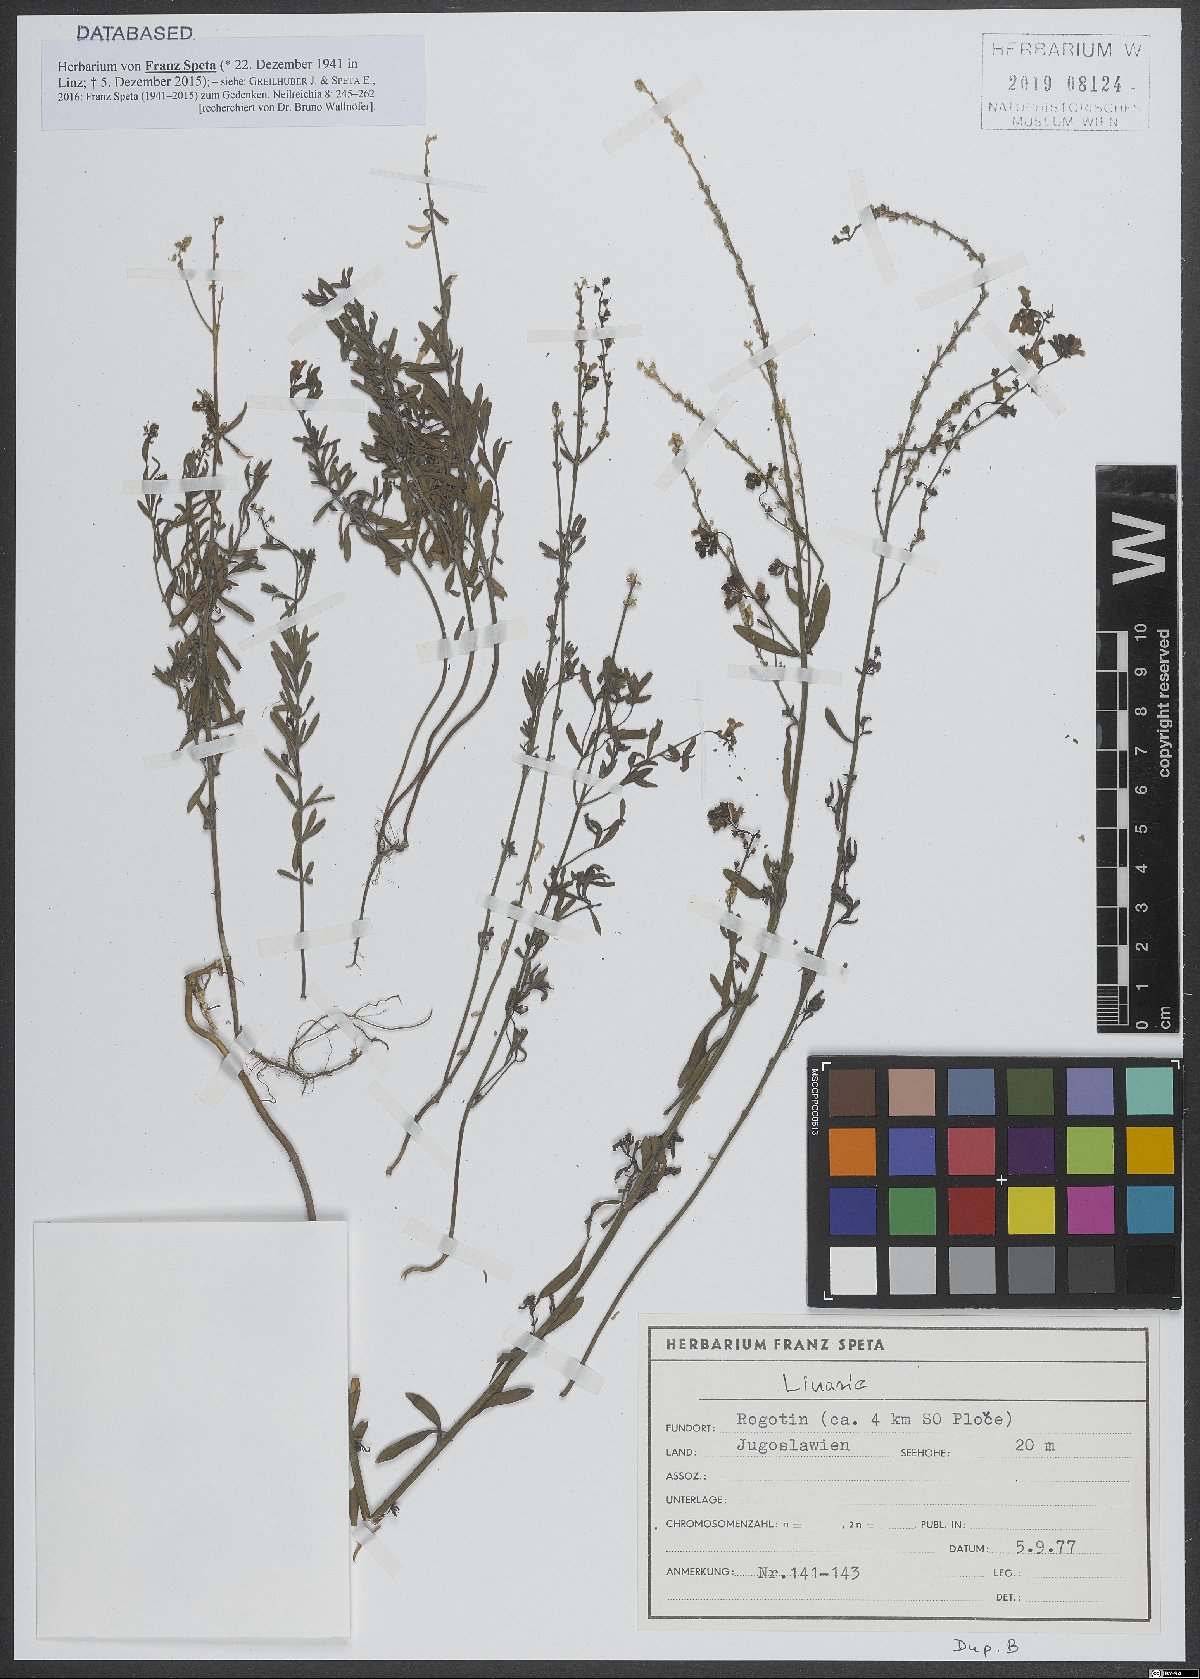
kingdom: Plantae
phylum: Tracheophyta
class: Magnoliopsida
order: Lamiales
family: Plantaginaceae
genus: Linaria
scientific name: Linaria
